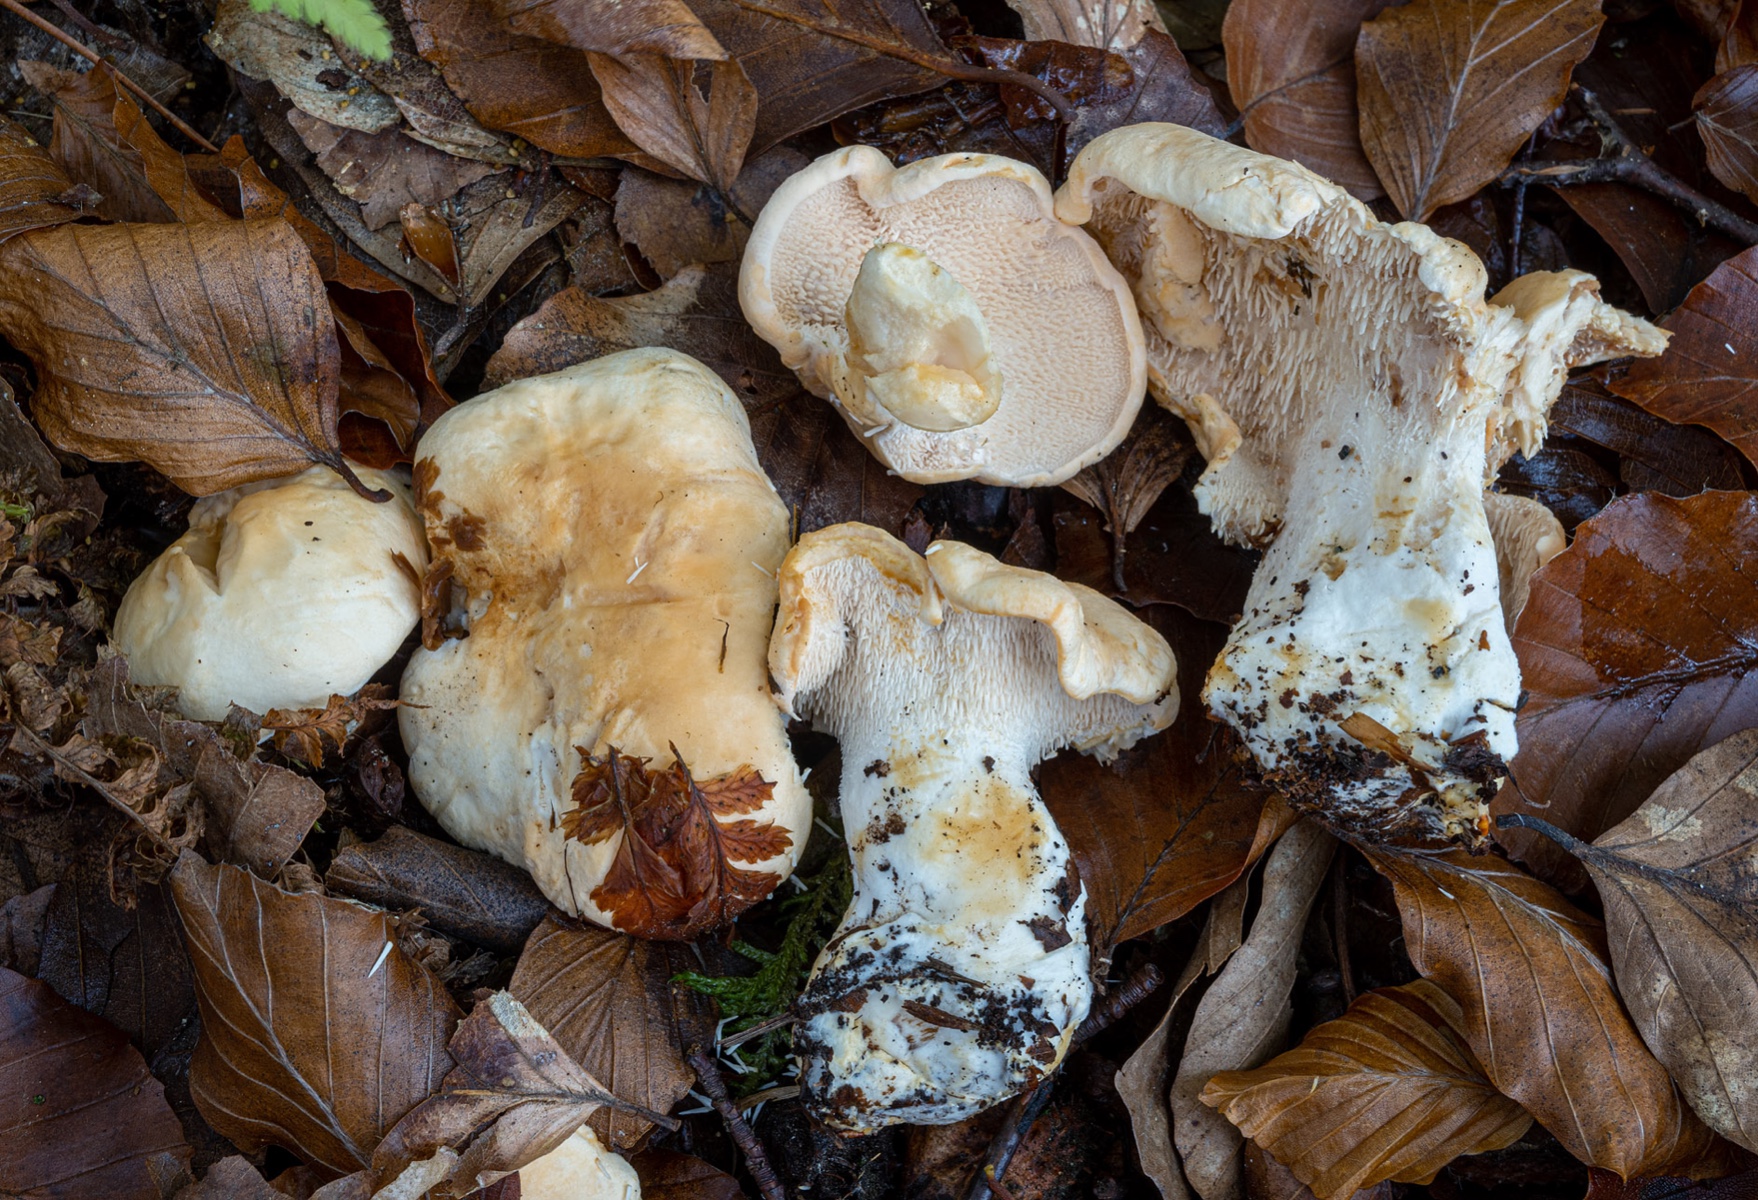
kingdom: Fungi
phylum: Basidiomycota
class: Agaricomycetes
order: Cantharellales
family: Hydnaceae
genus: Hydnum
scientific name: Hydnum repandum
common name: almindelig pigsvamp
